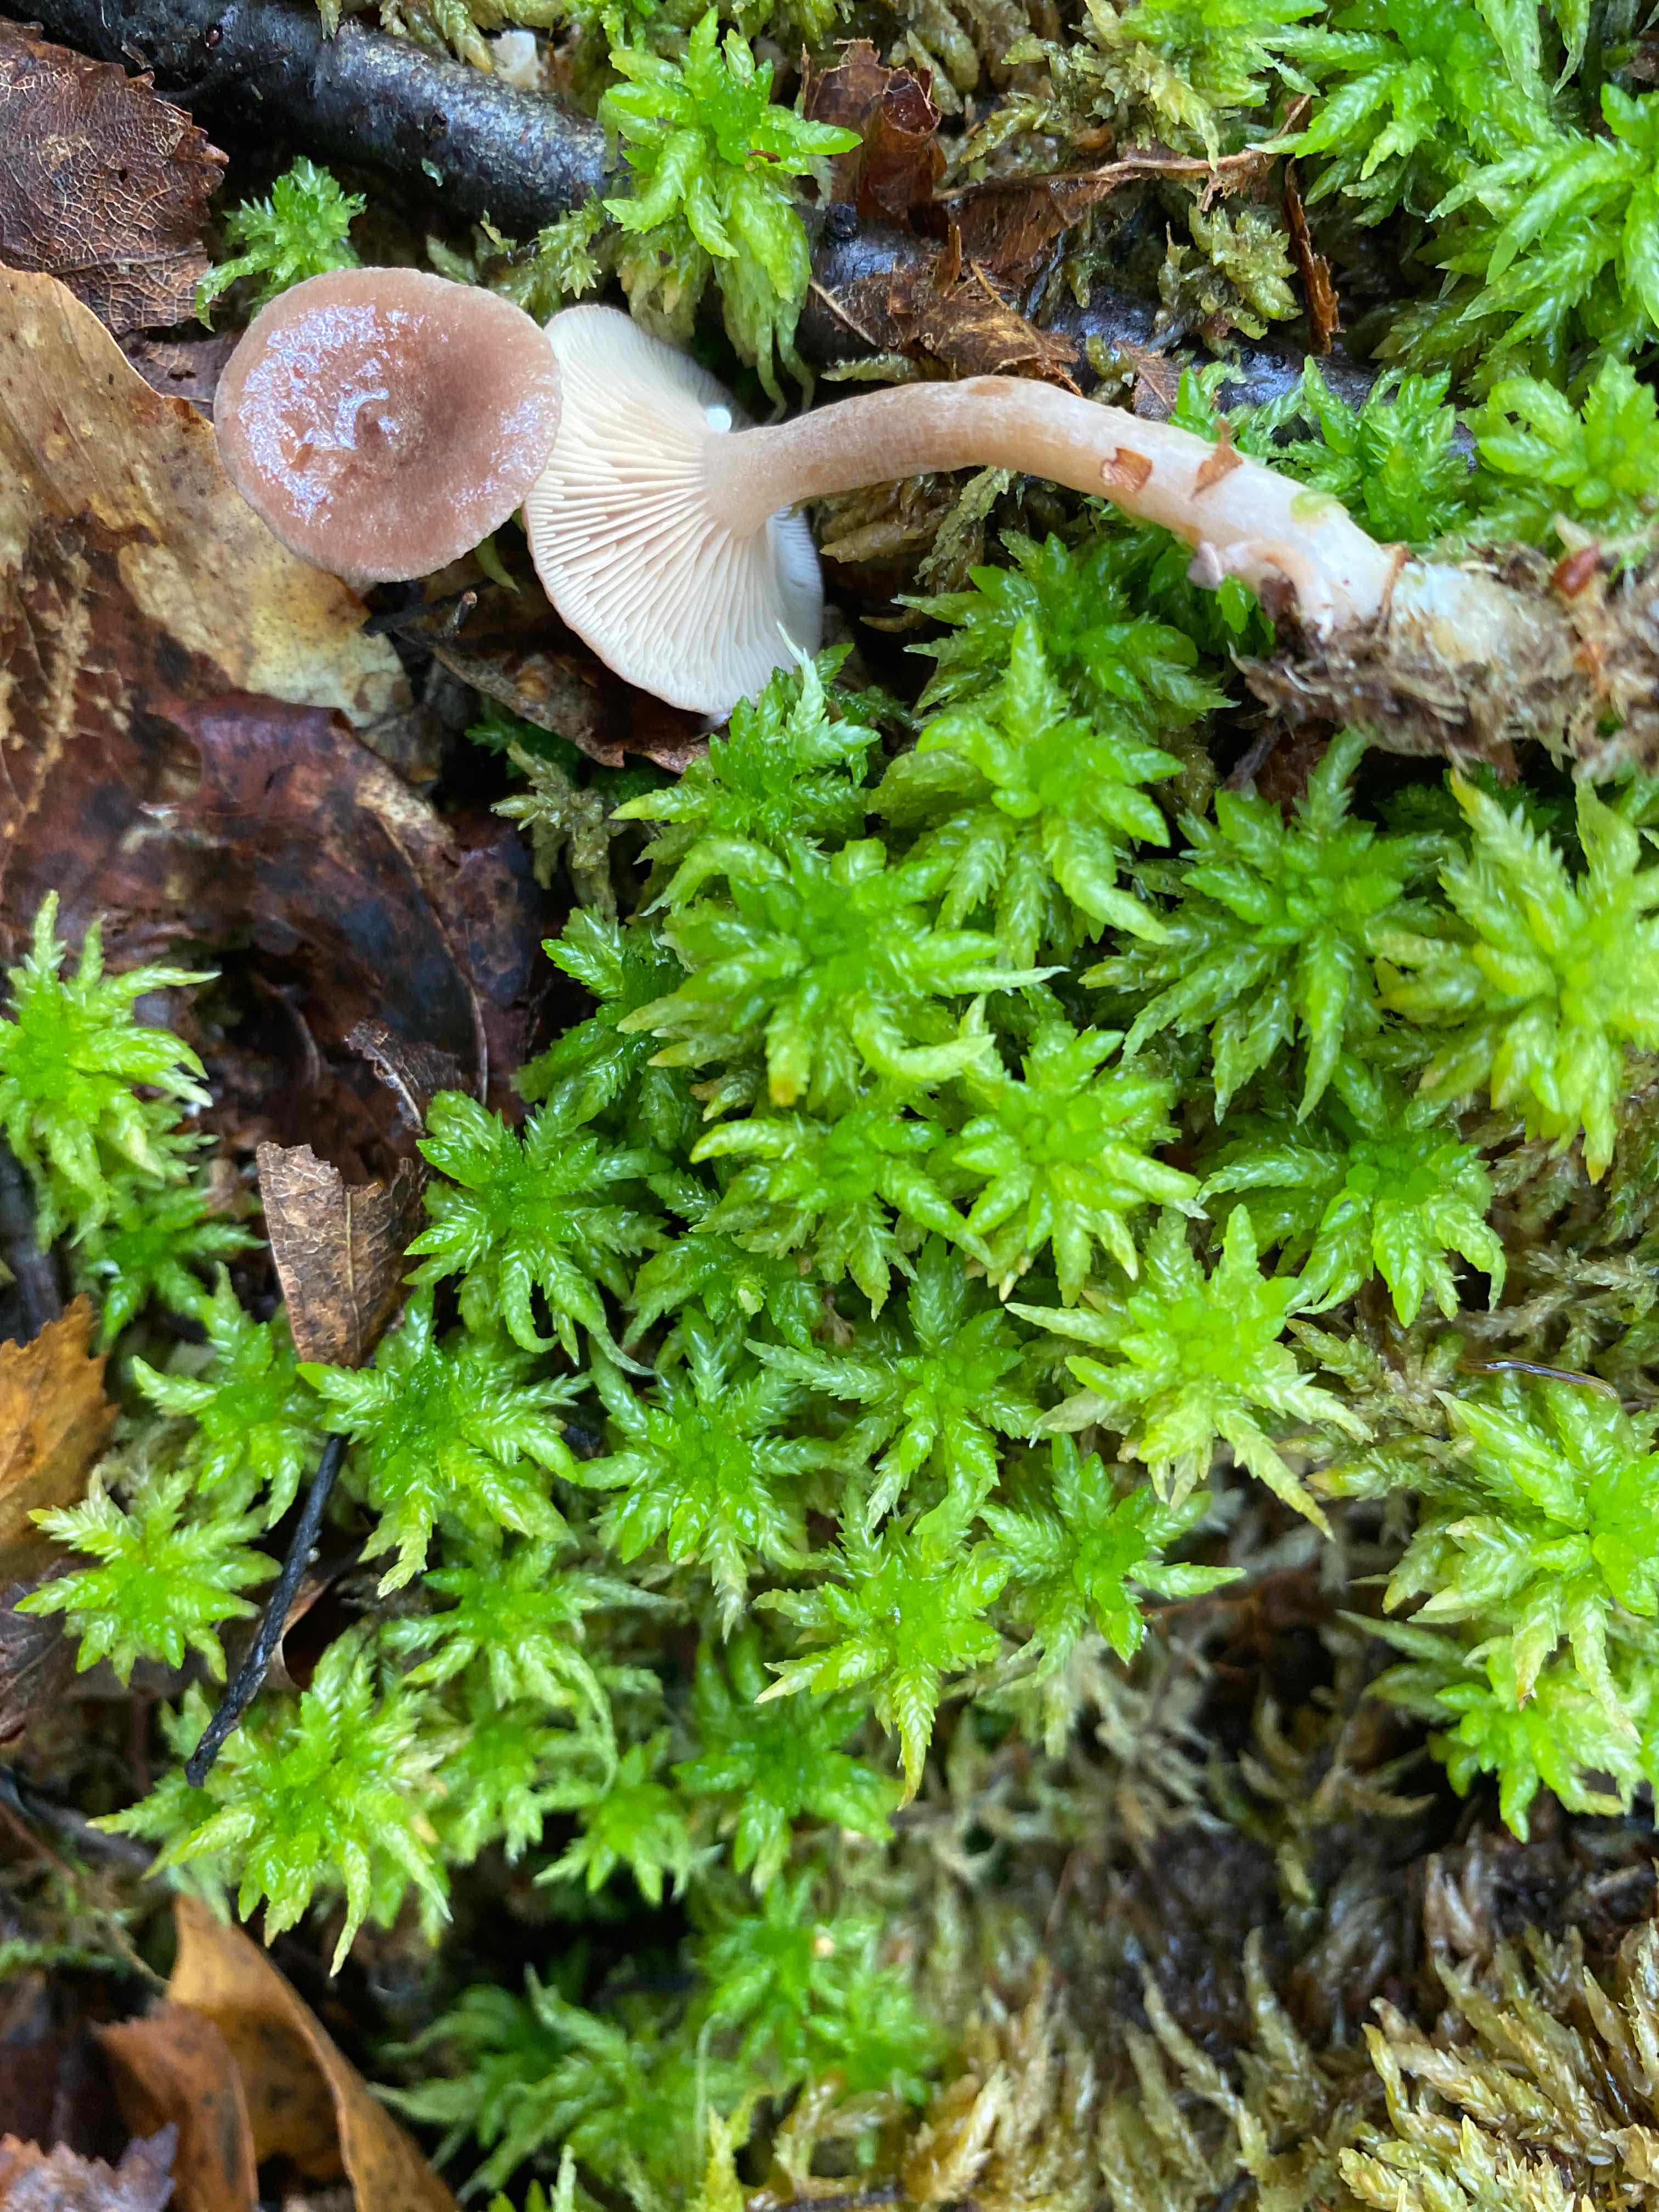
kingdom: Fungi
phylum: Basidiomycota
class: Agaricomycetes
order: Russulales
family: Russulaceae
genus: Lactarius
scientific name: Lactarius glyciosmus
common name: kokos-mælkehat
